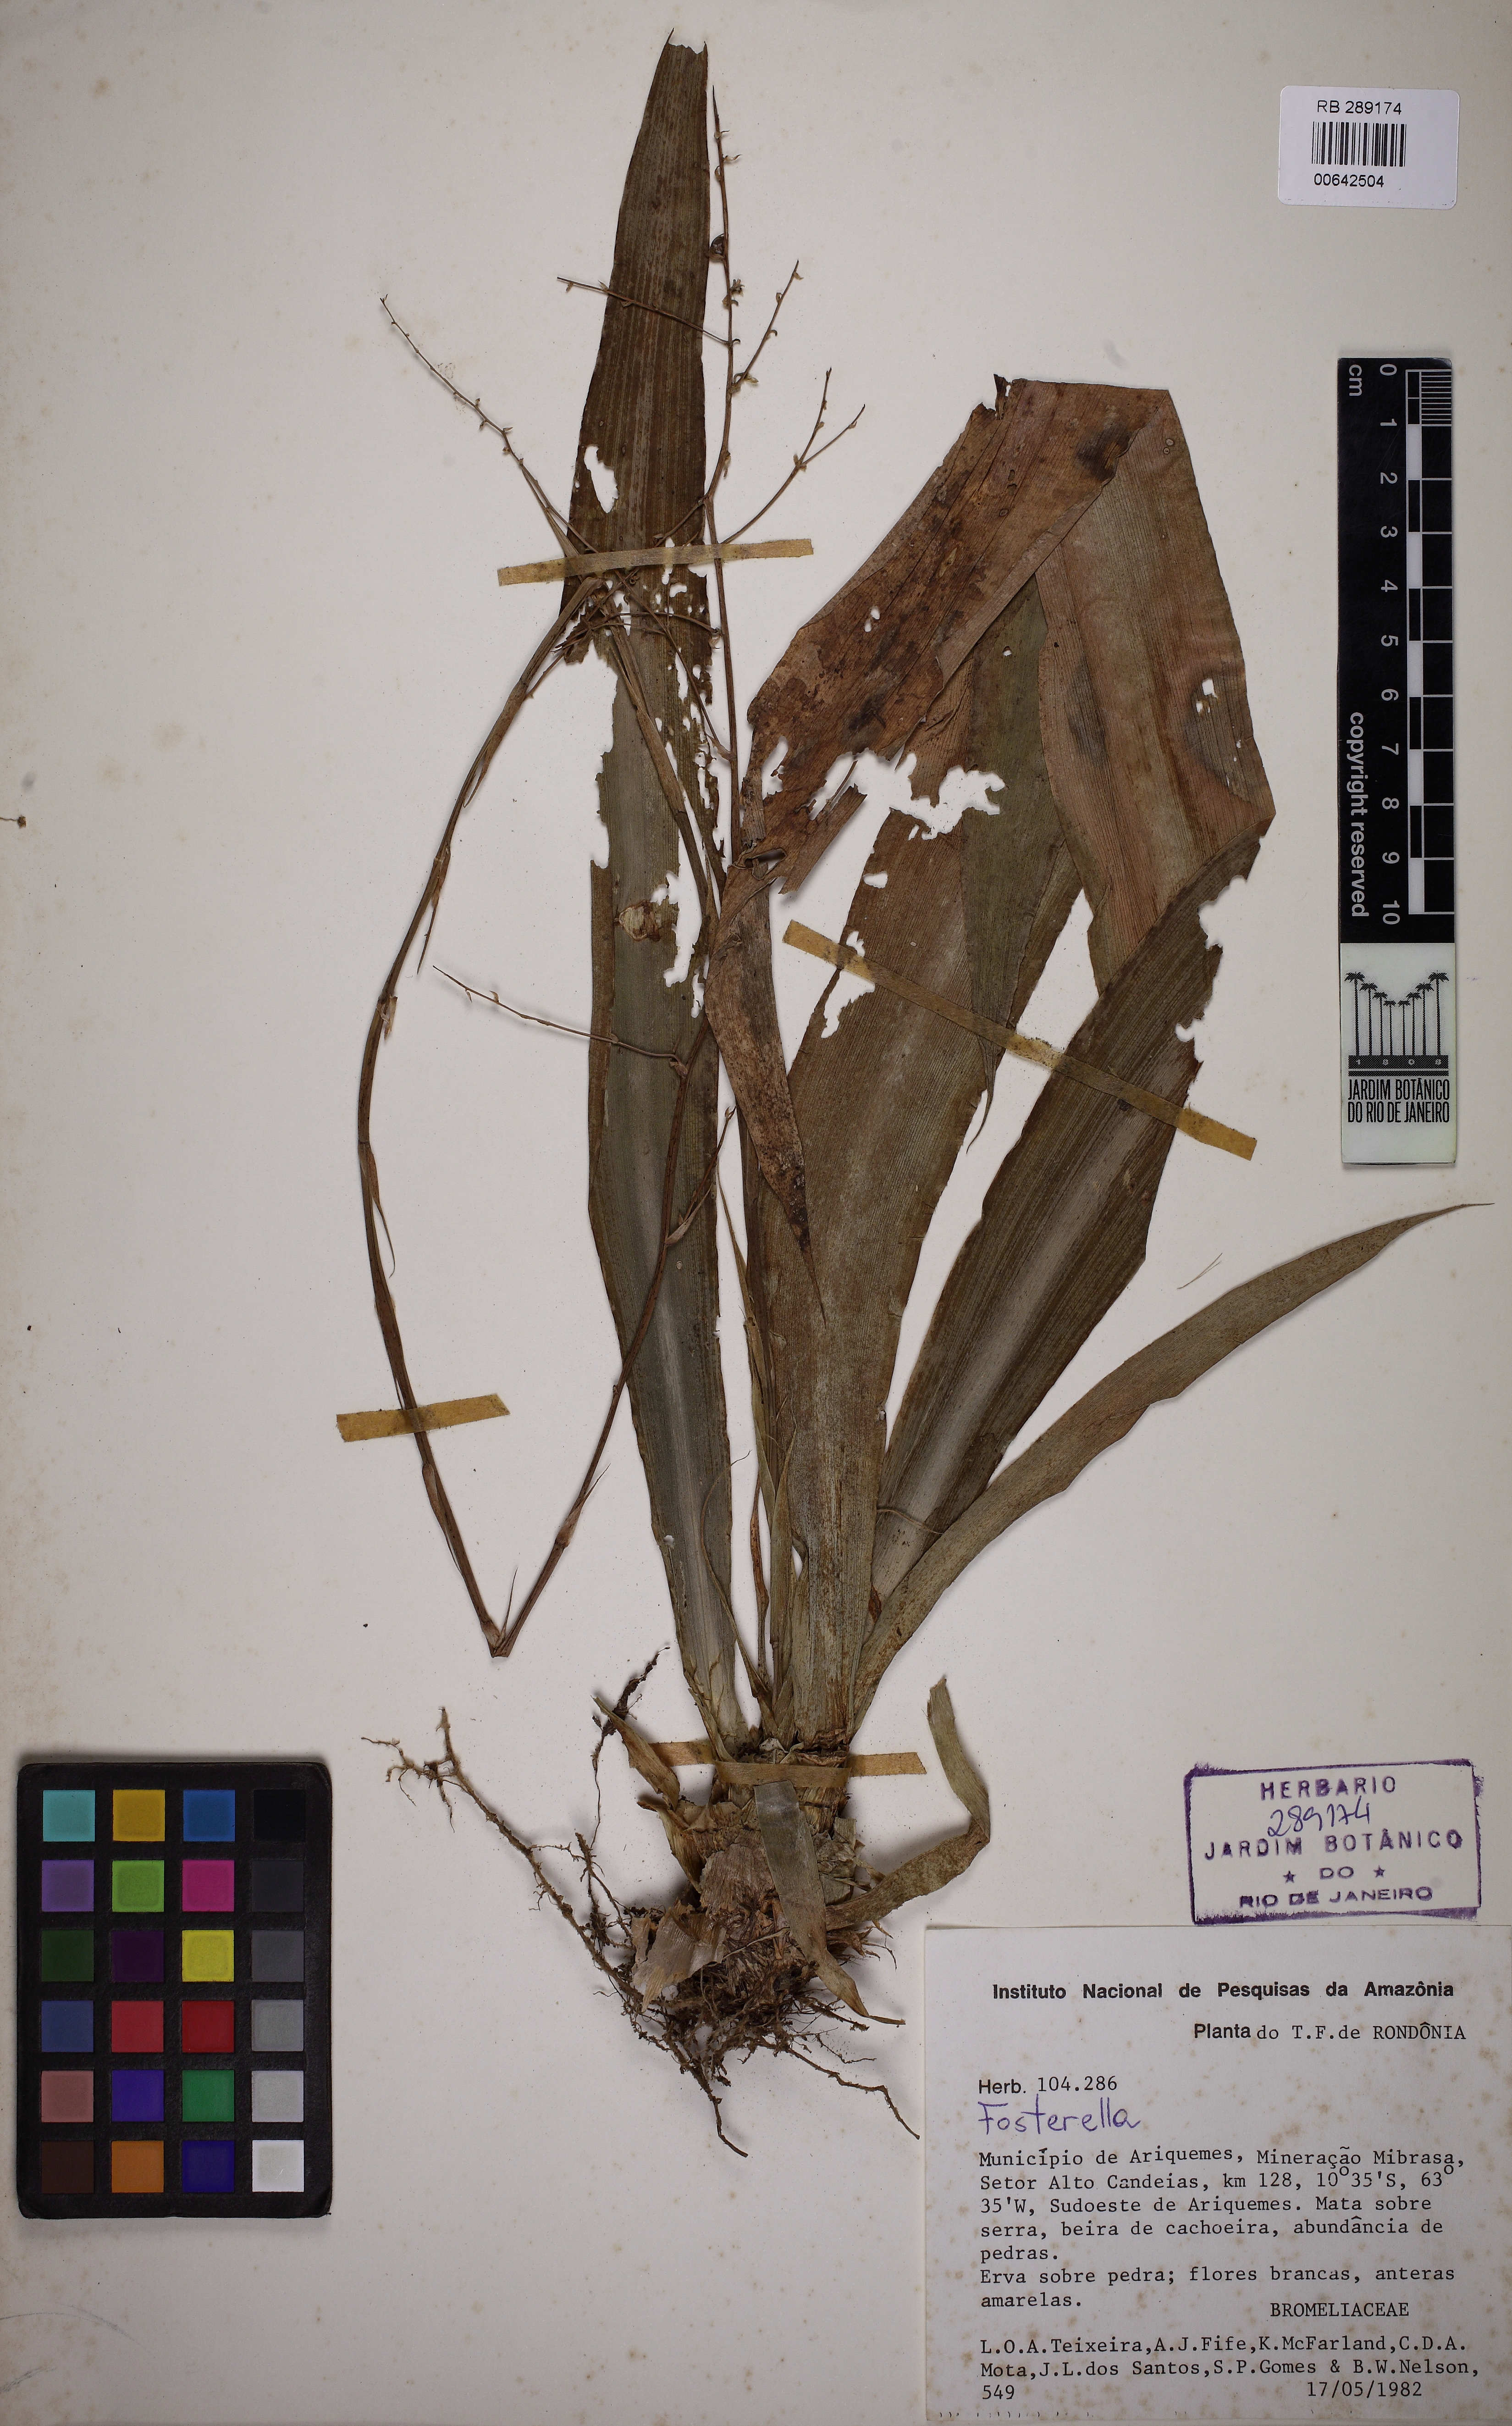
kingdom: Plantae
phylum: Tracheophyta
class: Liliopsida
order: Poales
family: Bromeliaceae
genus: Fosterella
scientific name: Fosterella penduliflora
